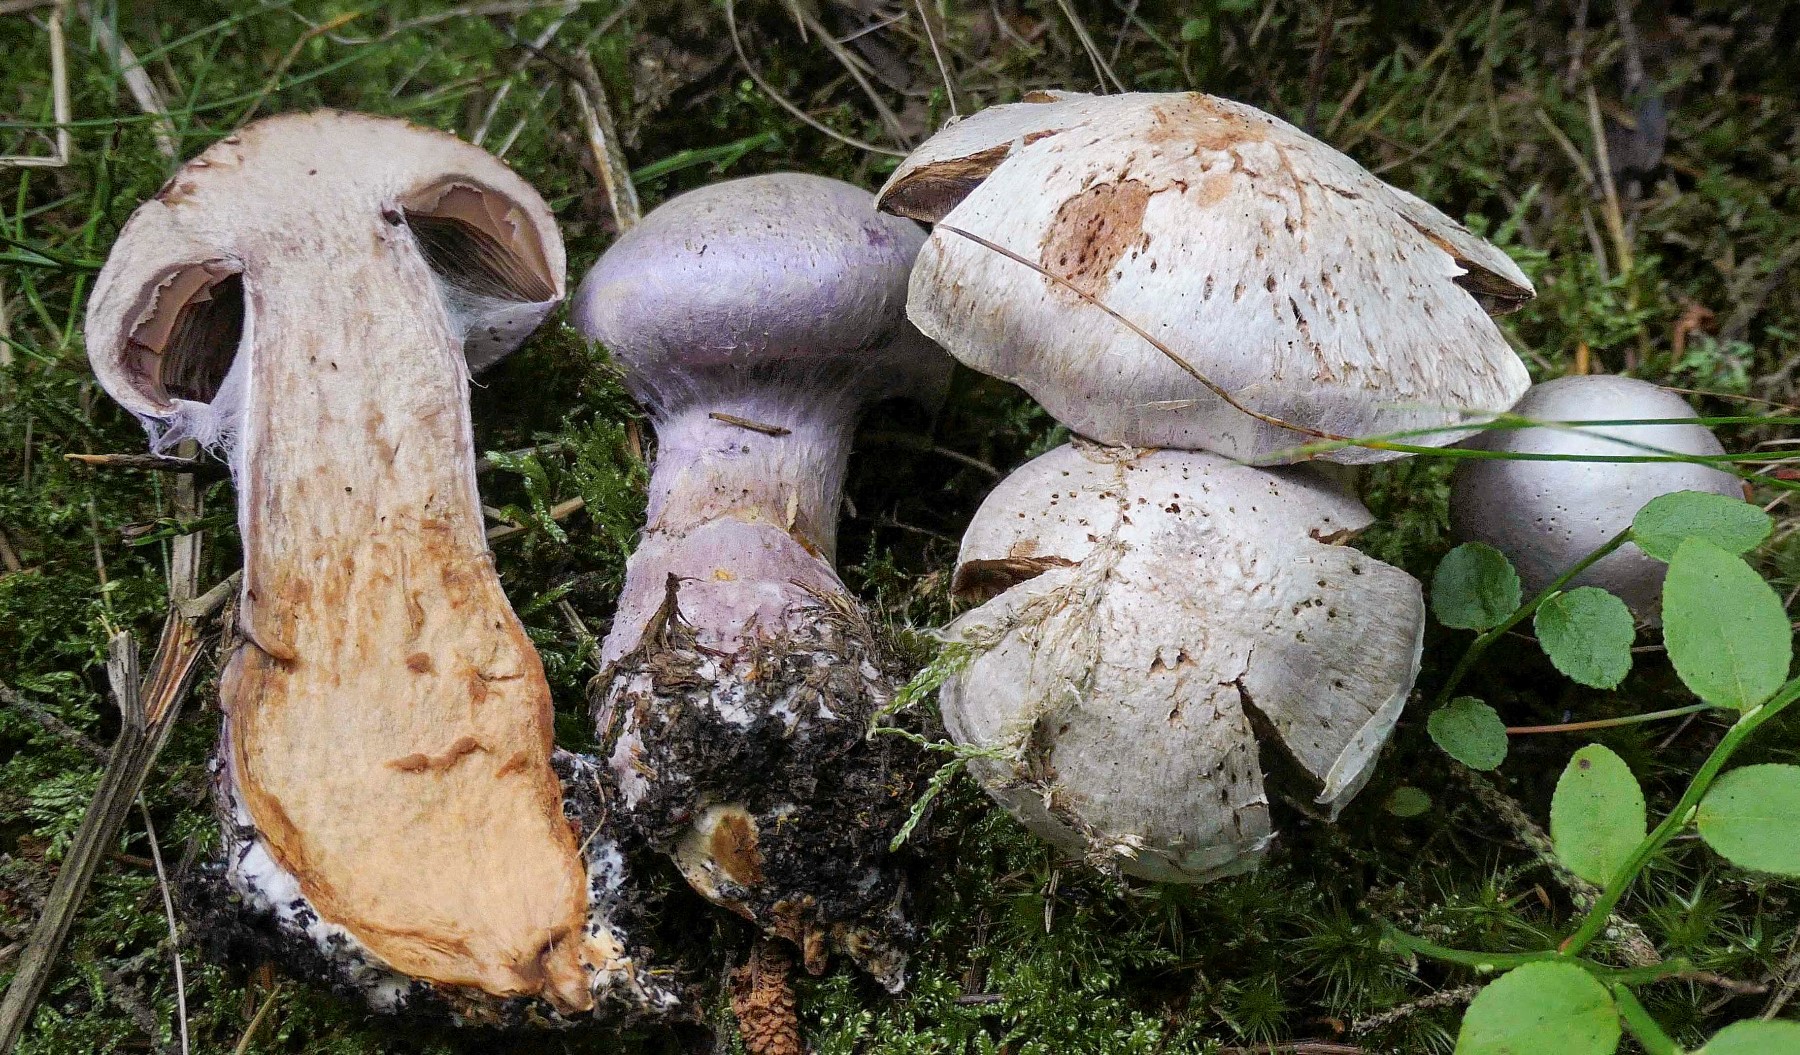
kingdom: Fungi
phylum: Basidiomycota
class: Agaricomycetes
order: Agaricales
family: Cortinariaceae
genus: Cortinarius
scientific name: Cortinarius traganus
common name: safrankødet slørhat
